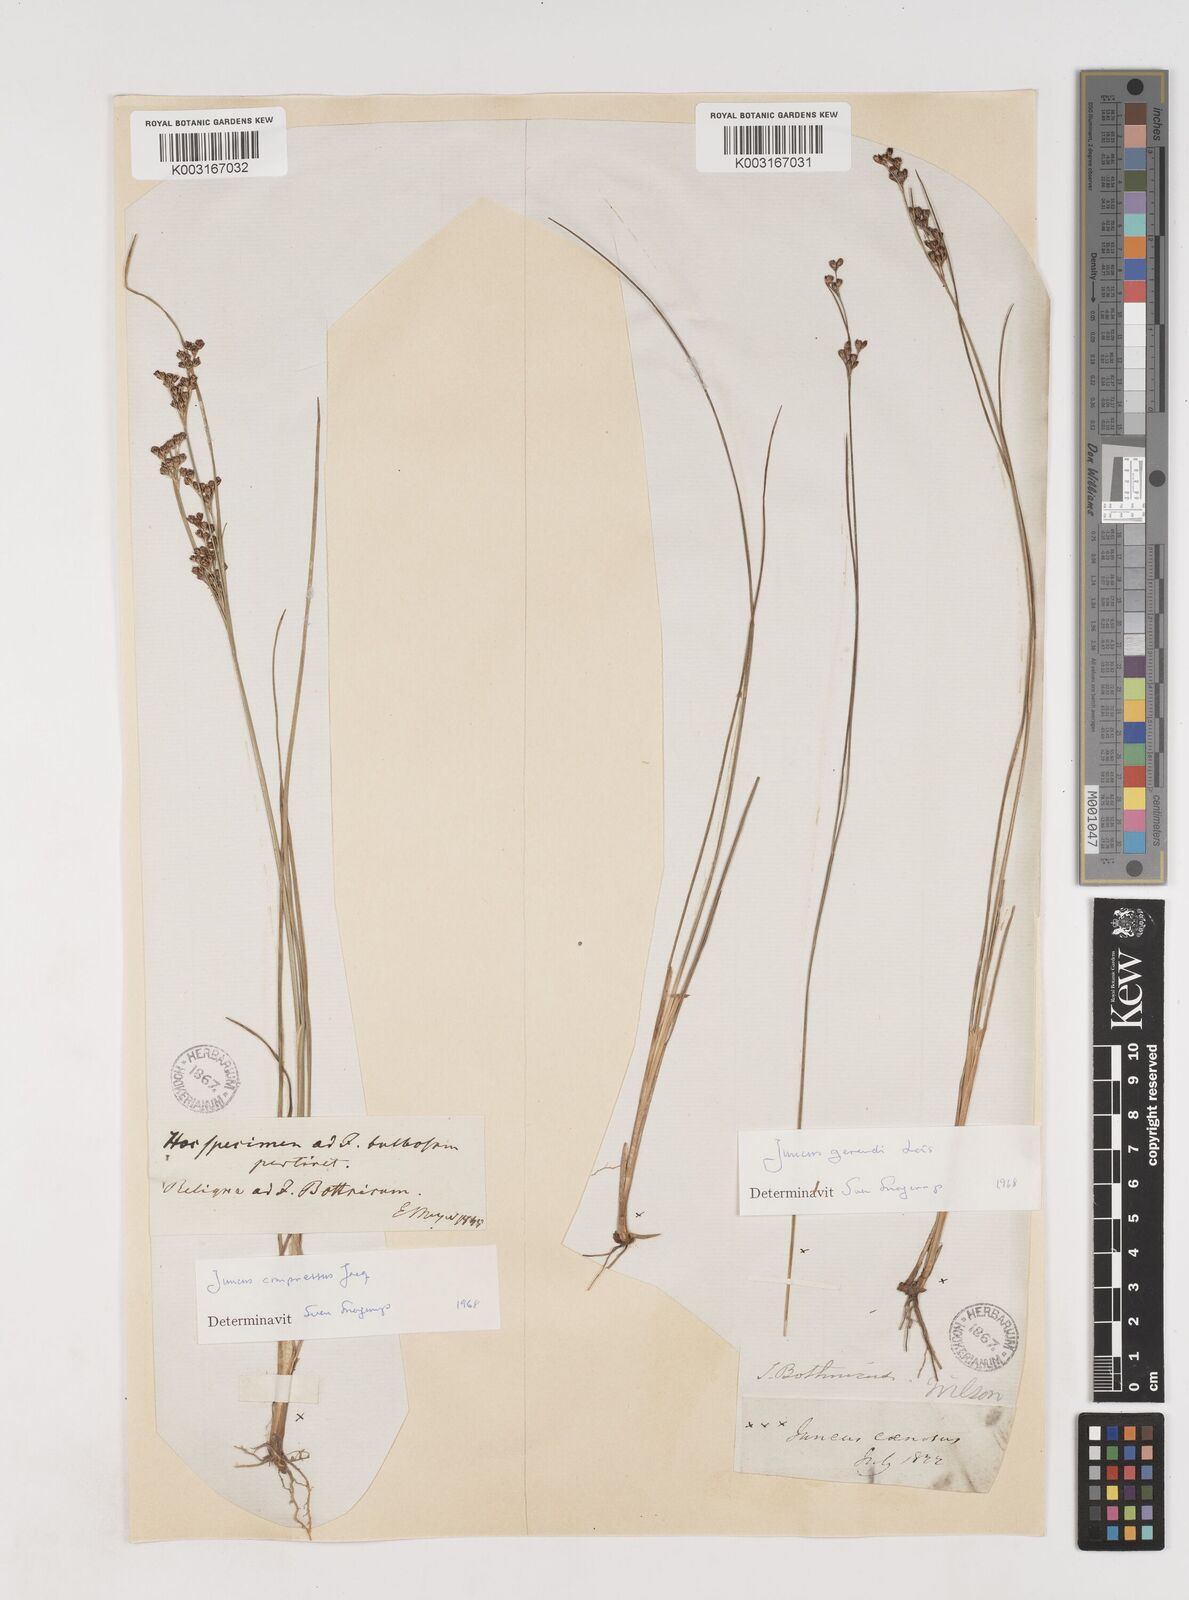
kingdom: Plantae
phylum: Tracheophyta
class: Liliopsida
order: Poales
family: Juncaceae
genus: Juncus
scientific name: Juncus gerardi
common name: Saltmarsh rush
